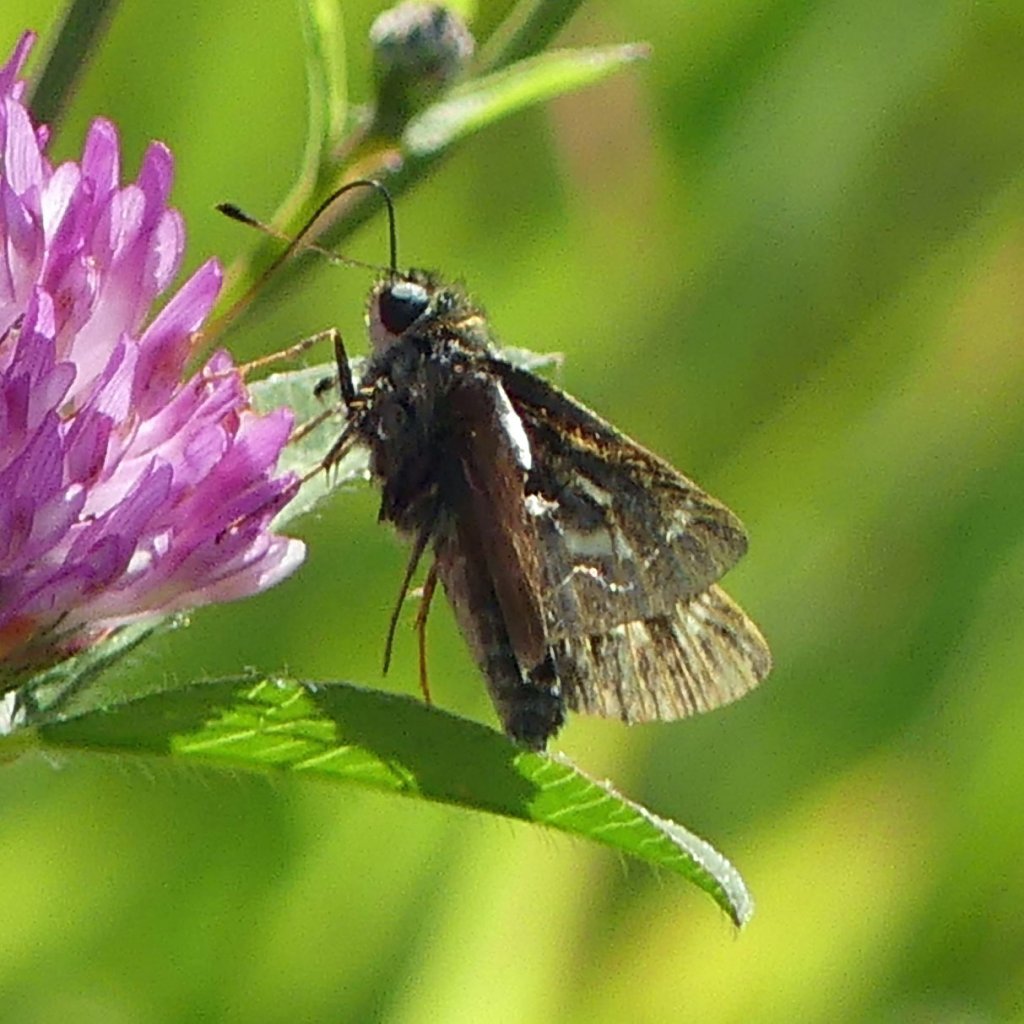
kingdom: Animalia
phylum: Arthropoda
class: Insecta
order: Lepidoptera
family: Hesperiidae
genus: Vernia
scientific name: Vernia verna
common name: Little Glassywing
